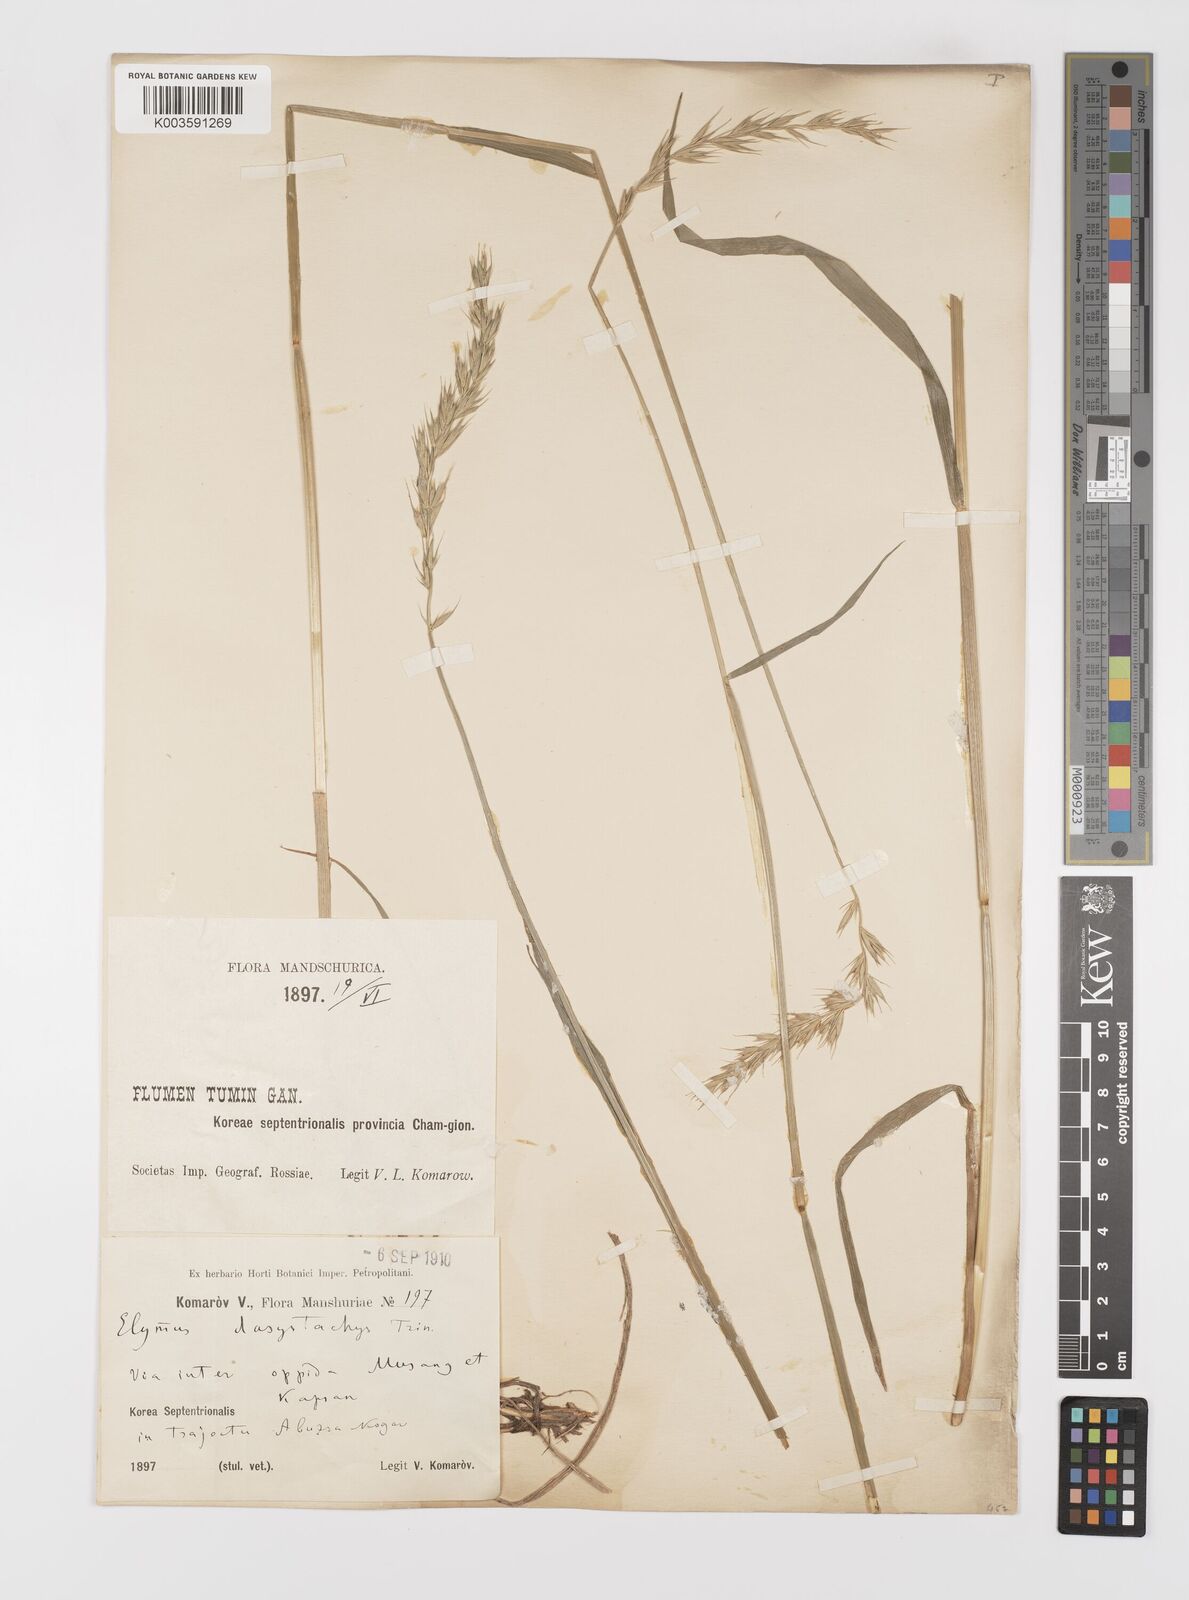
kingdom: Plantae
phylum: Tracheophyta
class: Liliopsida
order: Poales
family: Poaceae
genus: Leymus
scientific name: Leymus secalinus
